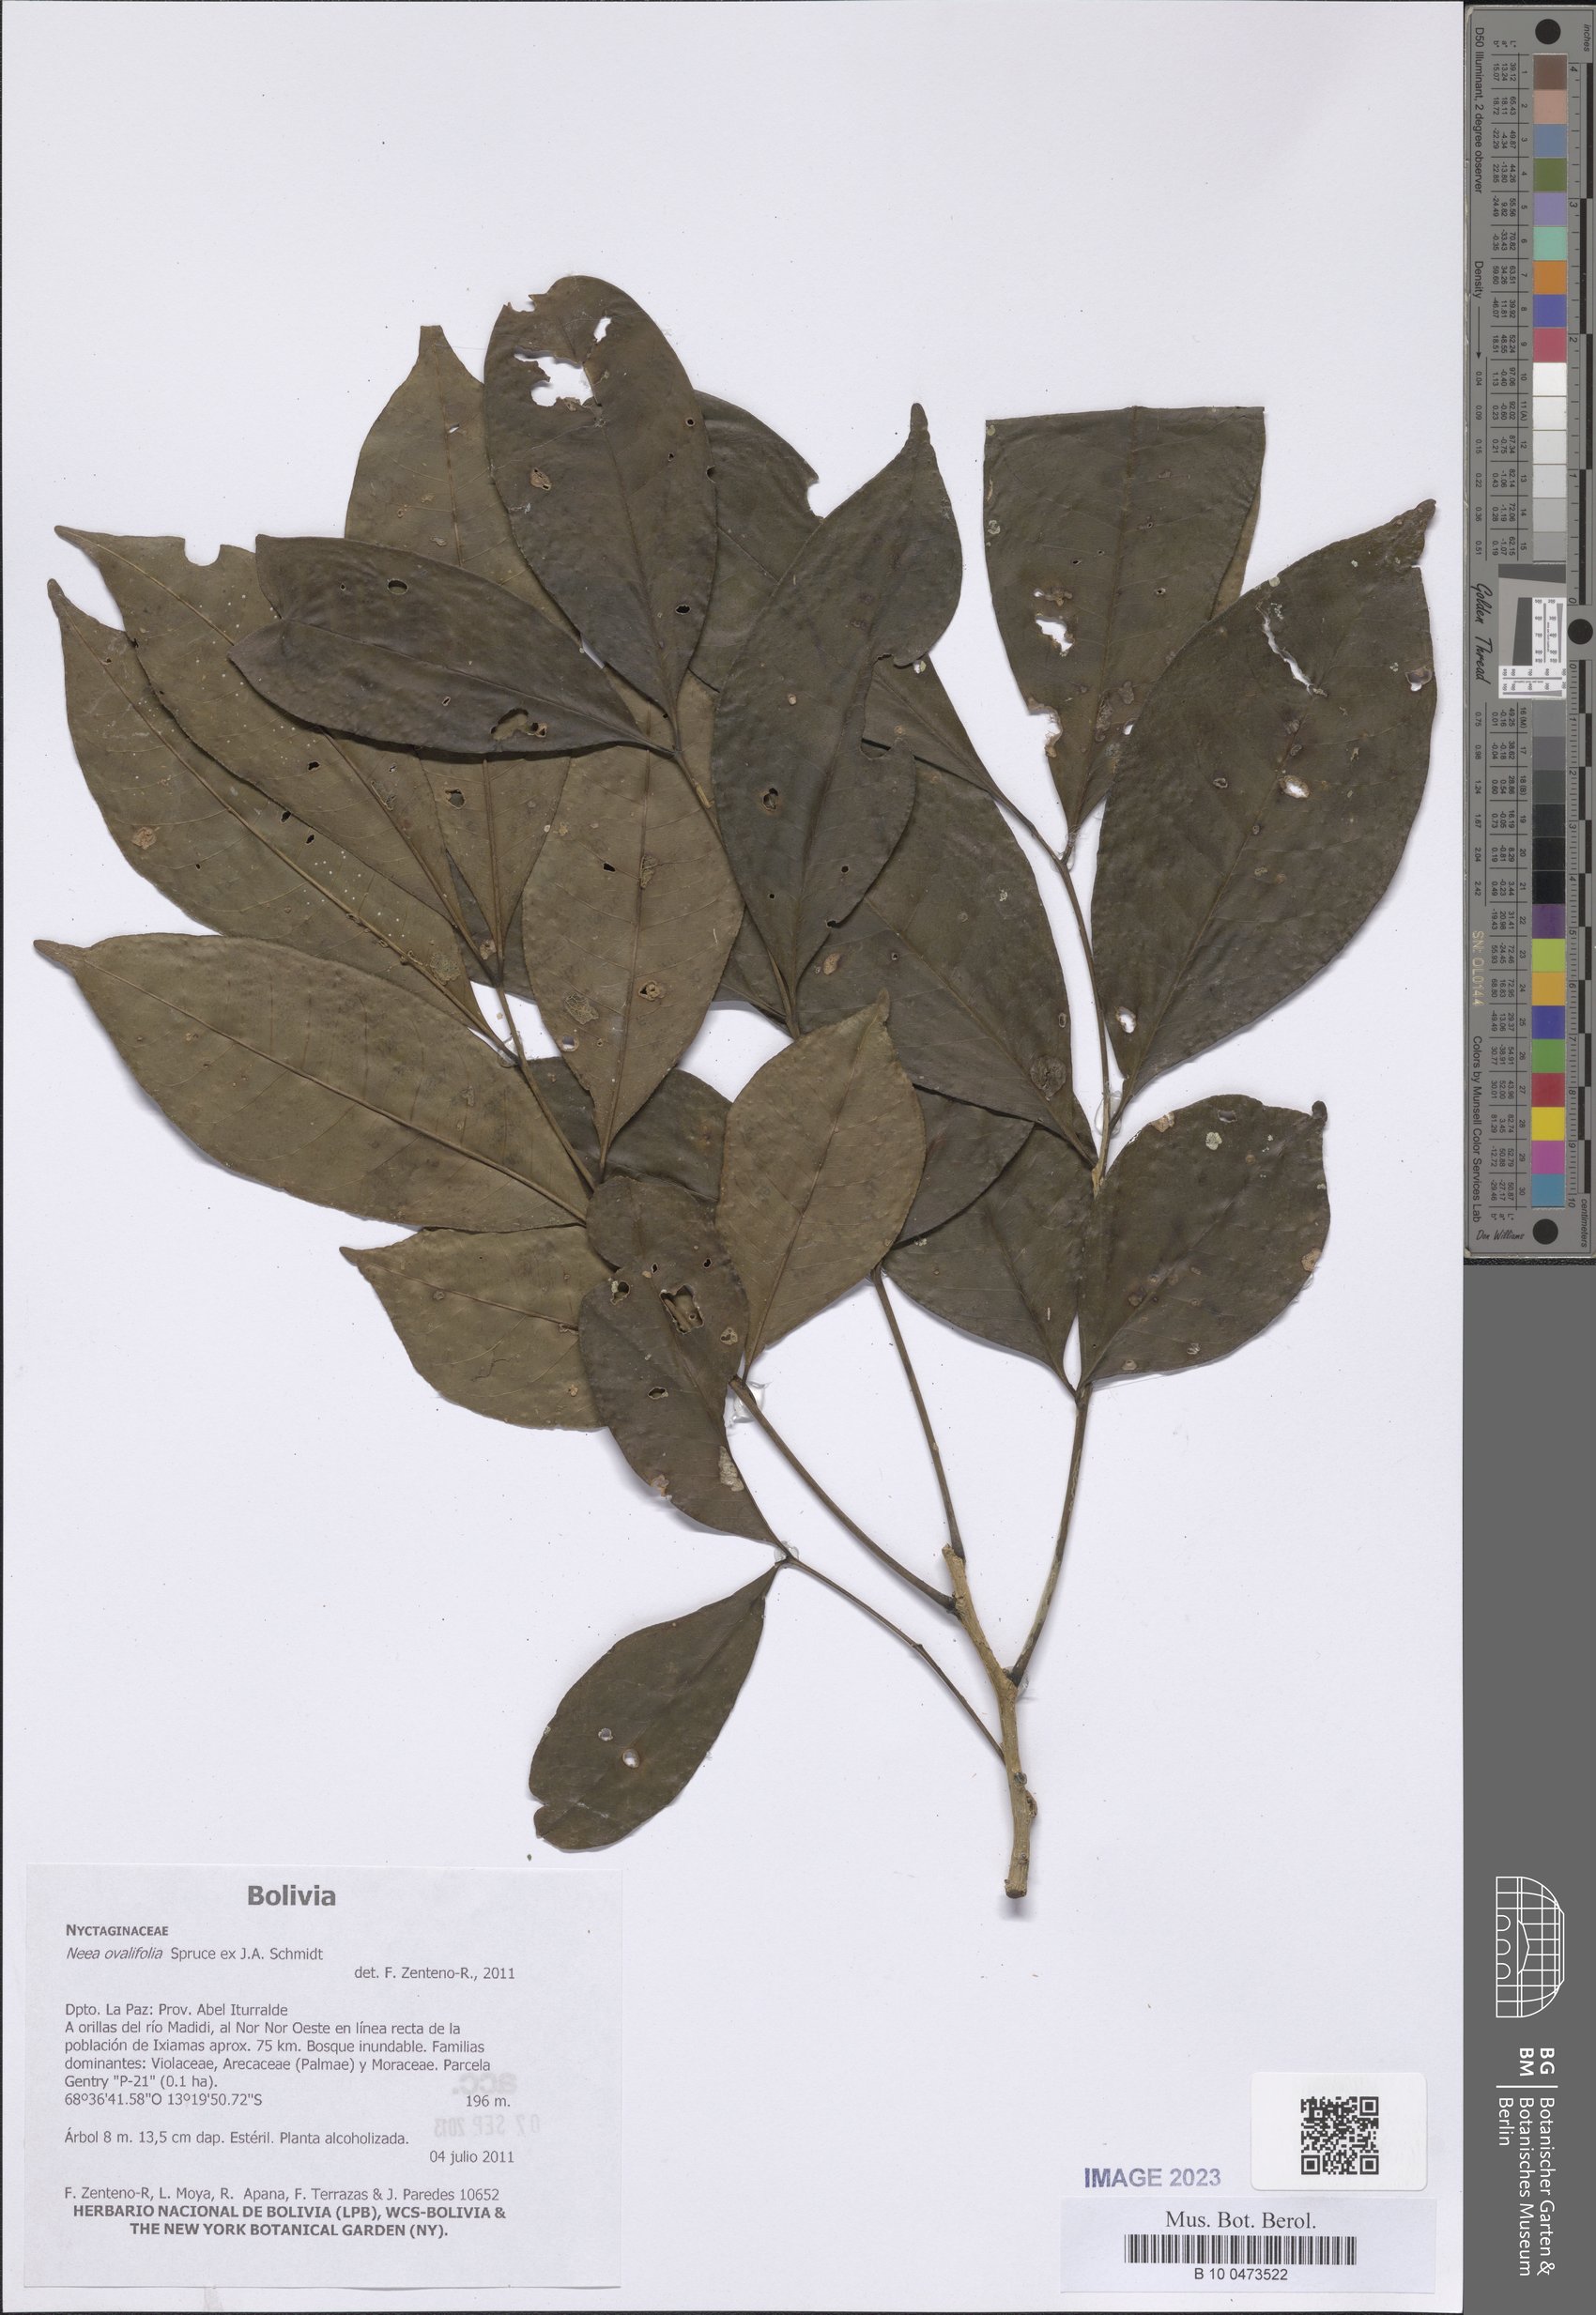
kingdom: Plantae
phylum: Tracheophyta
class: Magnoliopsida
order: Caryophyllales
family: Nyctaginaceae
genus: Neea
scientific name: Neea ovalifolia
